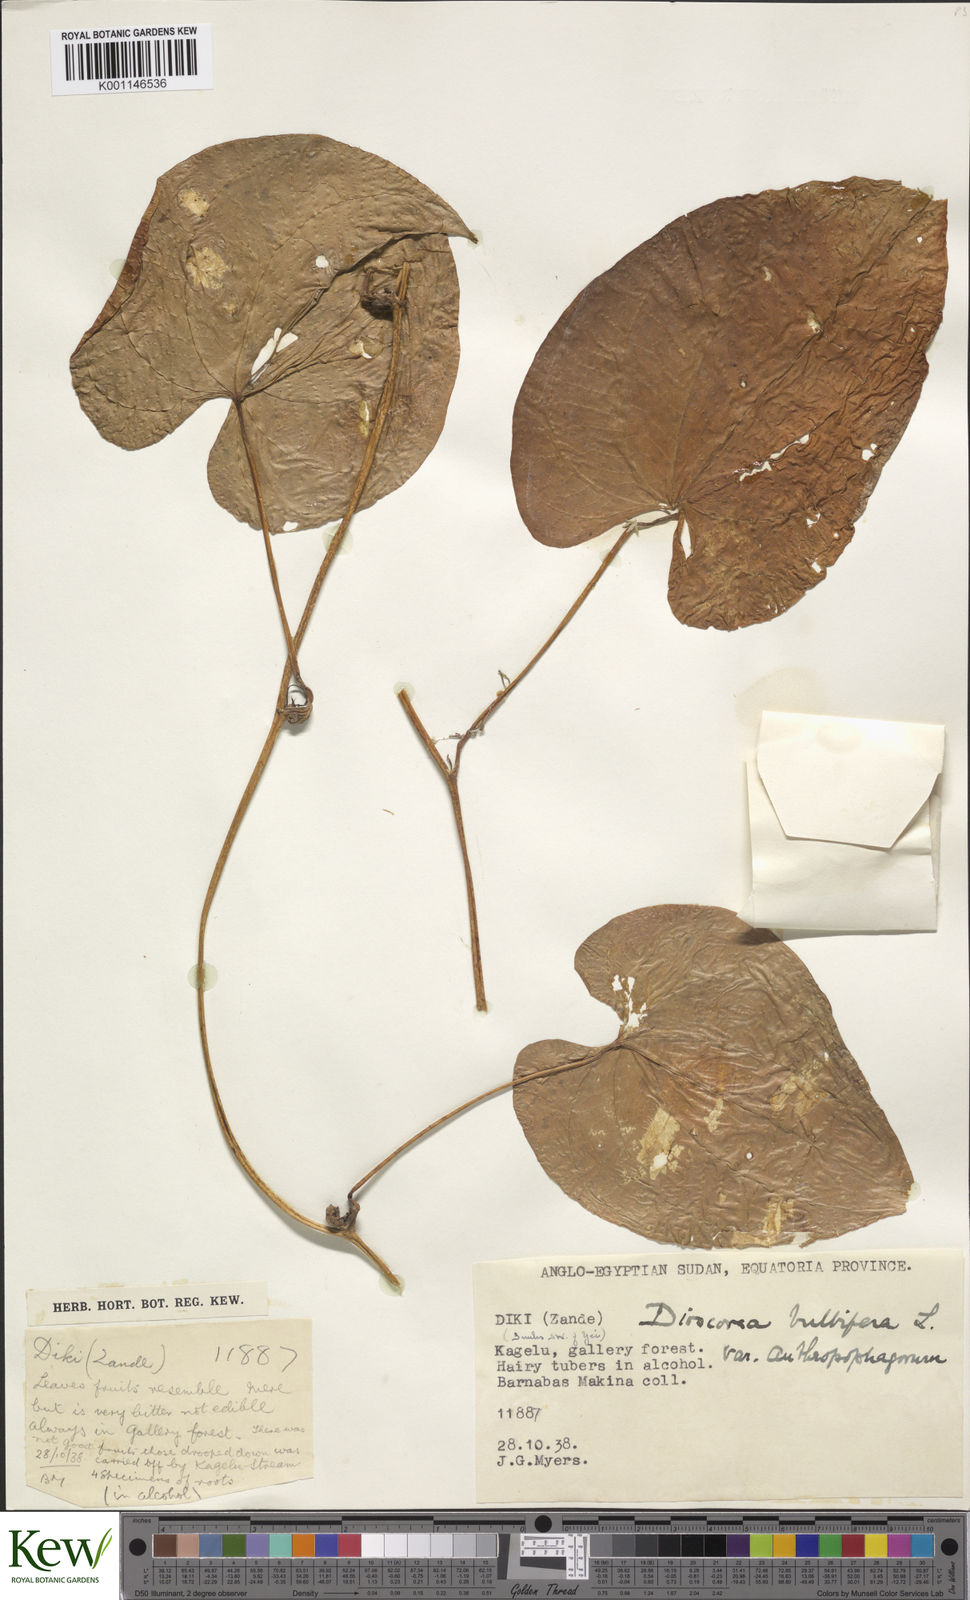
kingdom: Plantae
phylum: Tracheophyta
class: Liliopsida
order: Dioscoreales
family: Dioscoreaceae
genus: Dioscorea
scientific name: Dioscorea bulbifera
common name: Air yam
